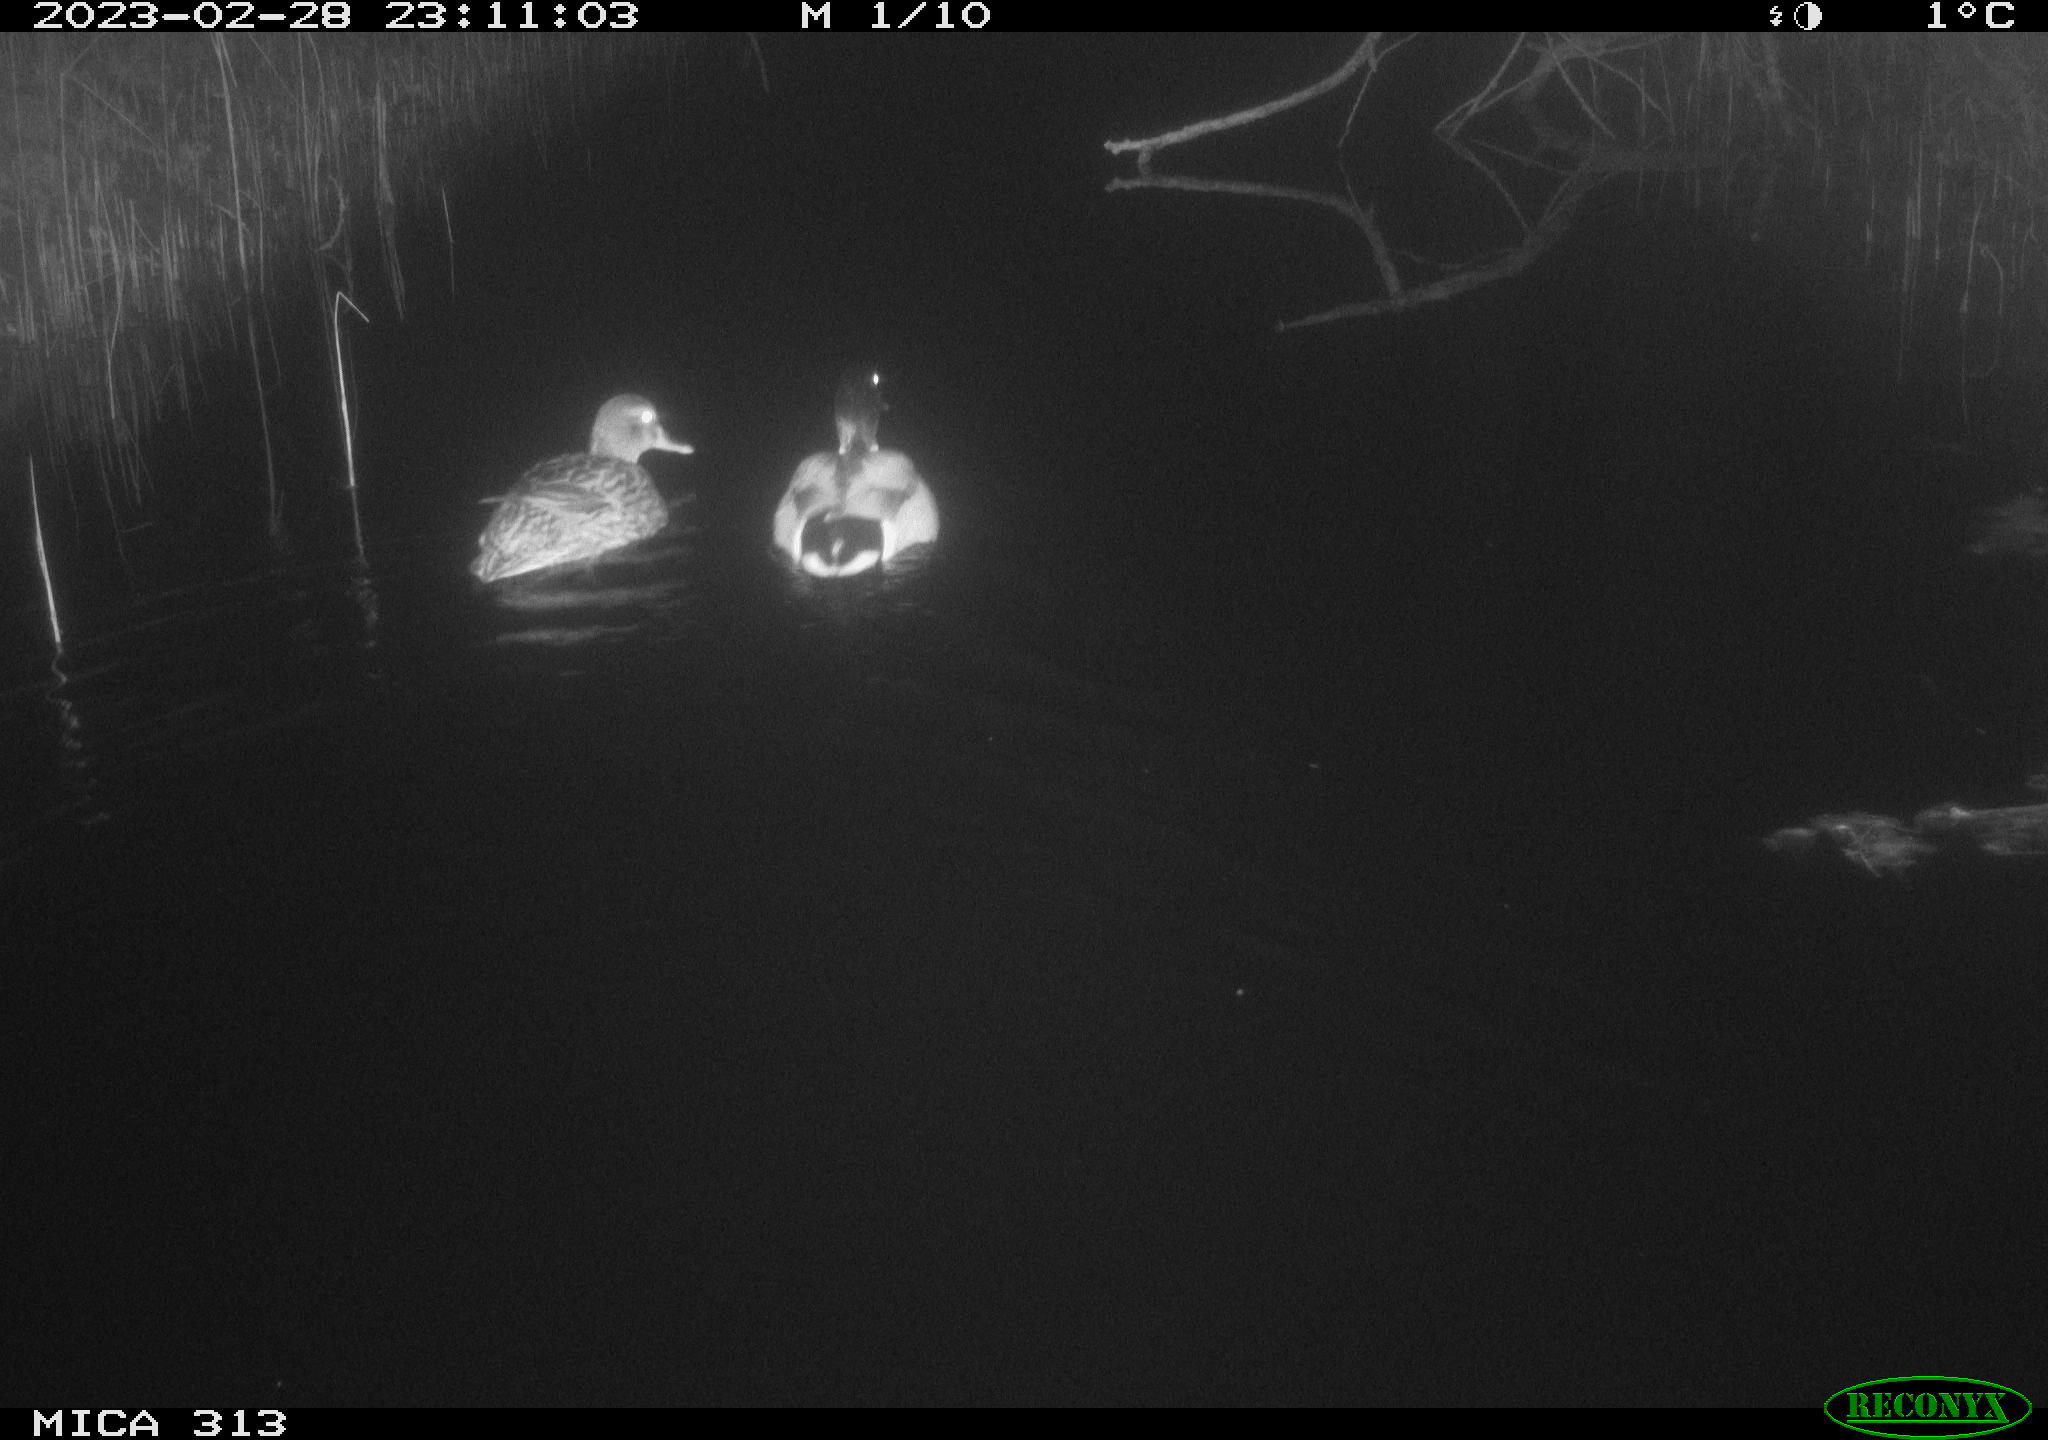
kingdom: Animalia
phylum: Chordata
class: Aves
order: Anseriformes
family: Anatidae
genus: Anas
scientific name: Anas
